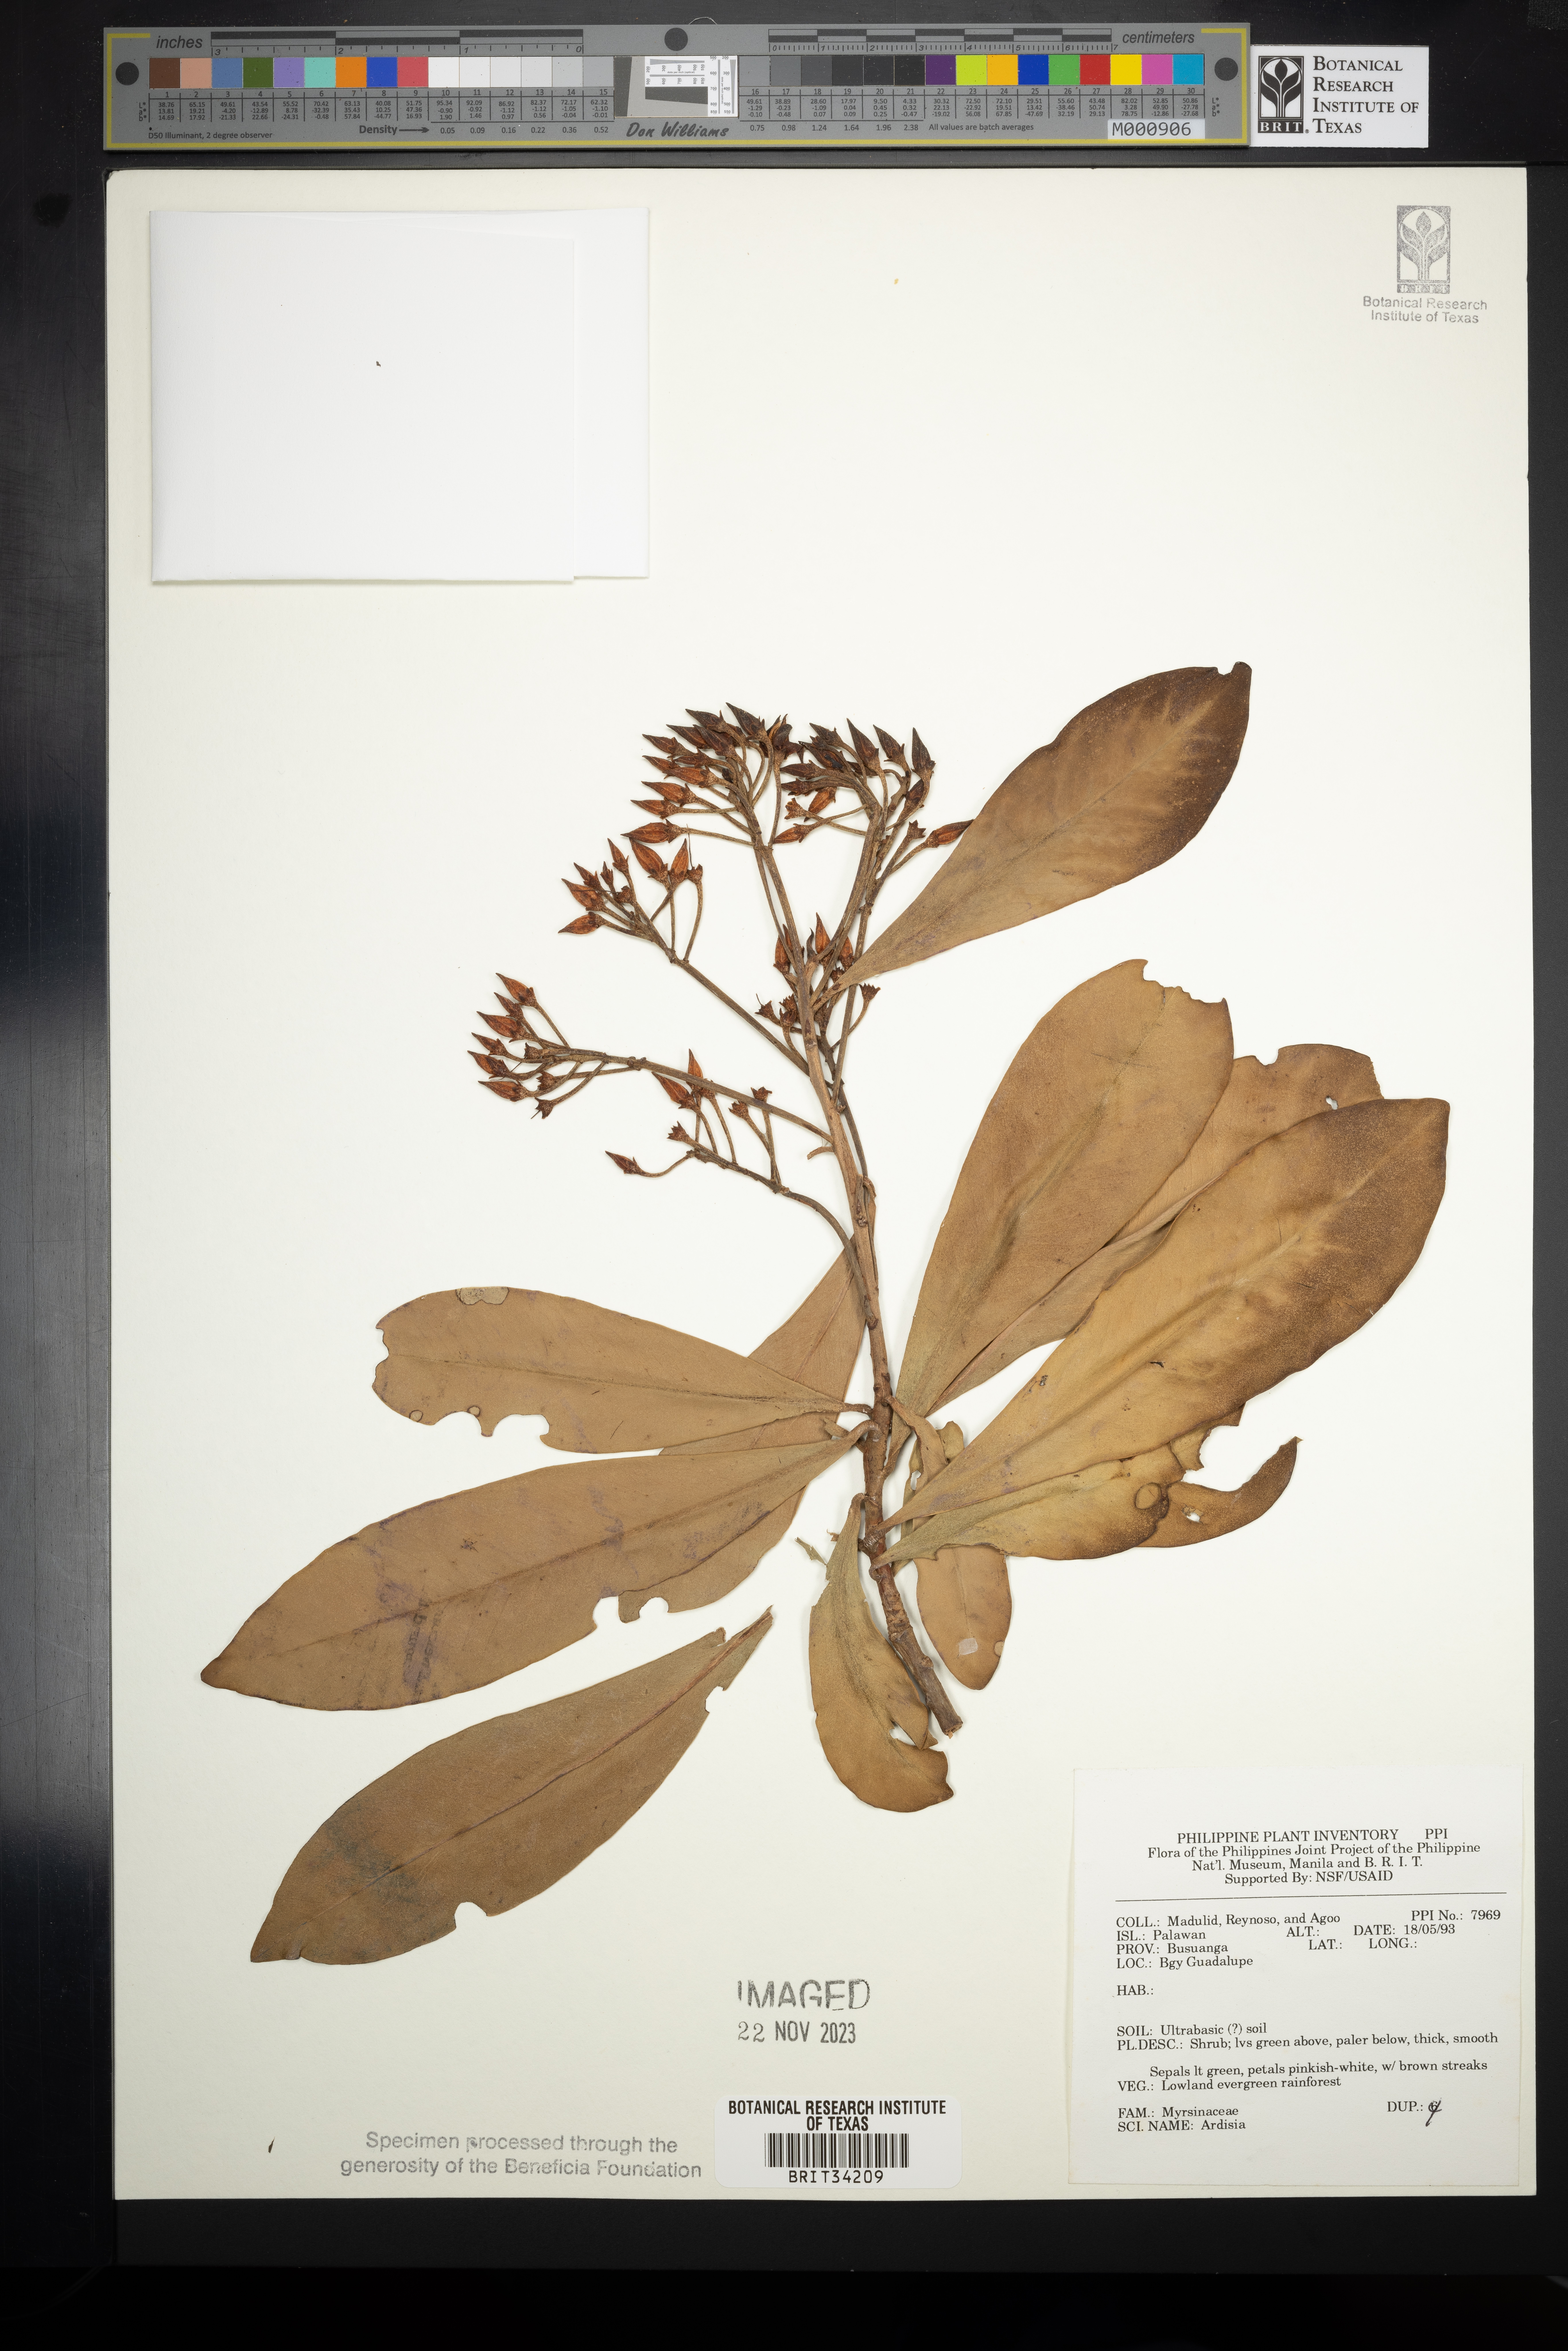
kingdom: Plantae
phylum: Tracheophyta
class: Magnoliopsida
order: Ericales
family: Primulaceae
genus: Ardisia
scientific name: Ardisia
